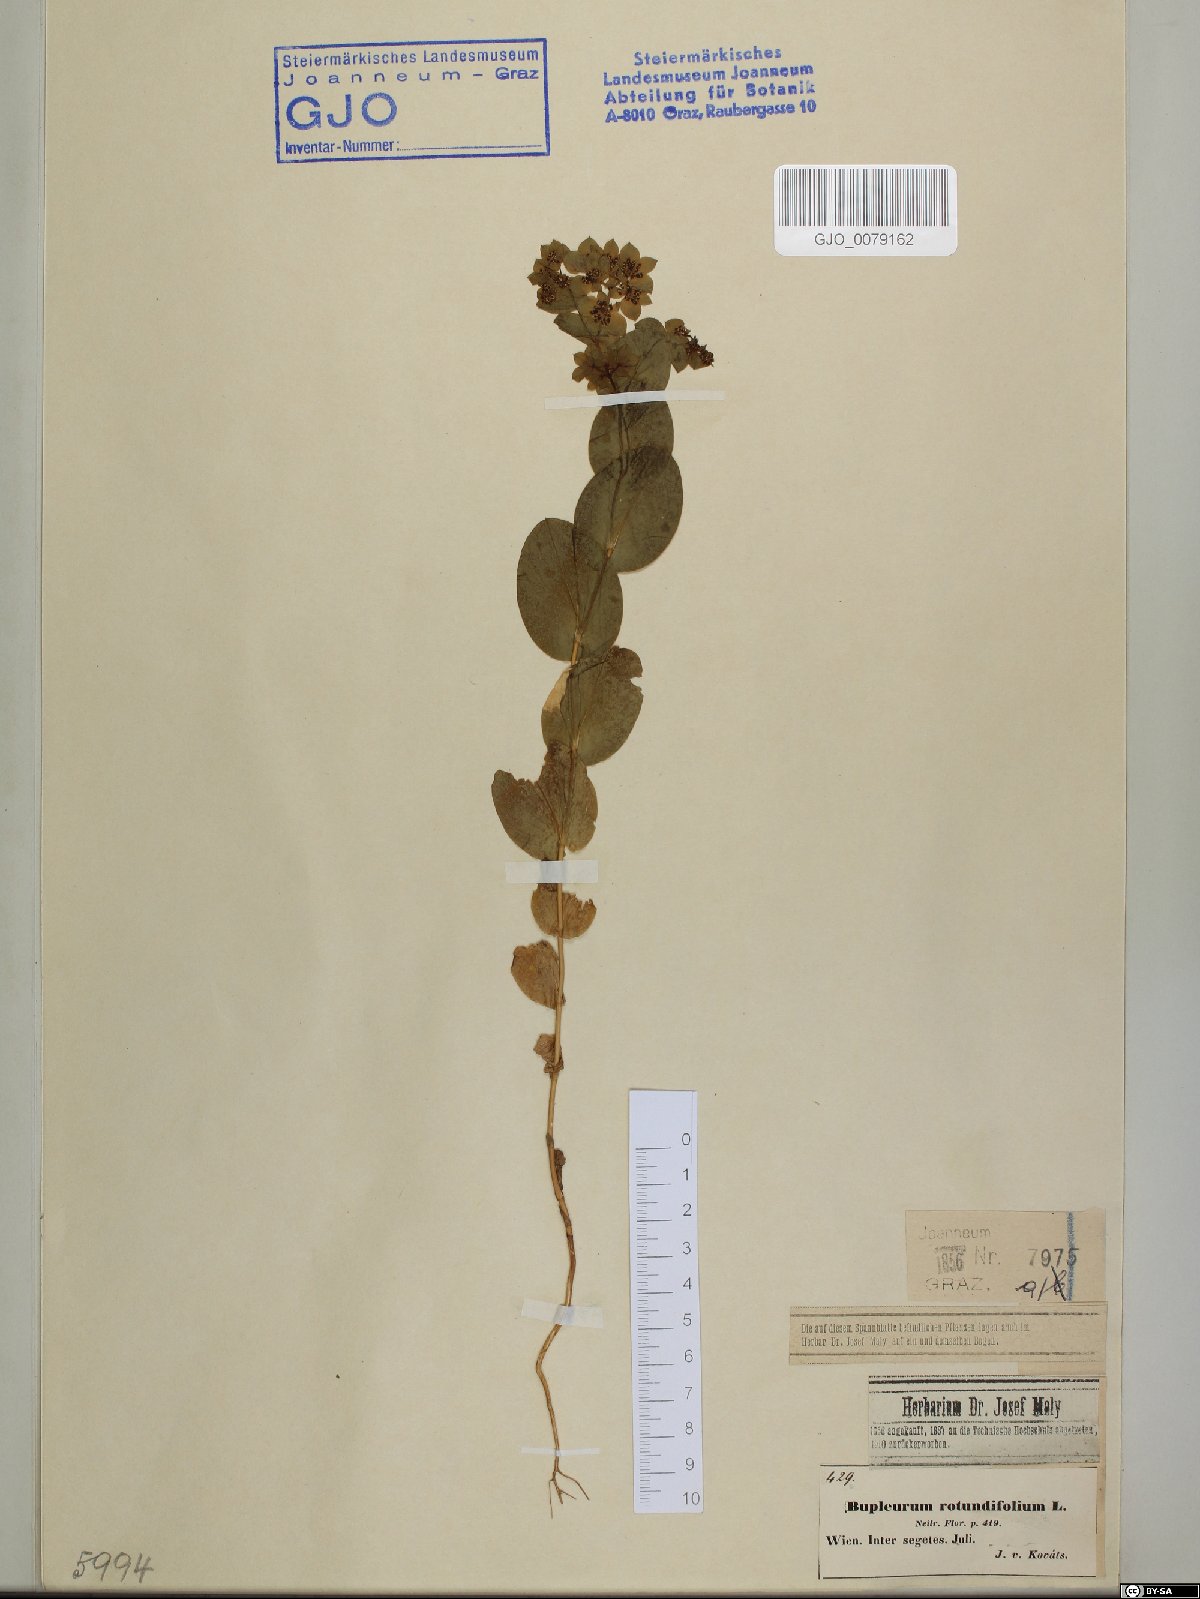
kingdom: Plantae
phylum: Tracheophyta
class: Magnoliopsida
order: Apiales
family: Apiaceae
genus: Bupleurum
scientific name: Bupleurum rotundifolium
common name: Thorow-wax
